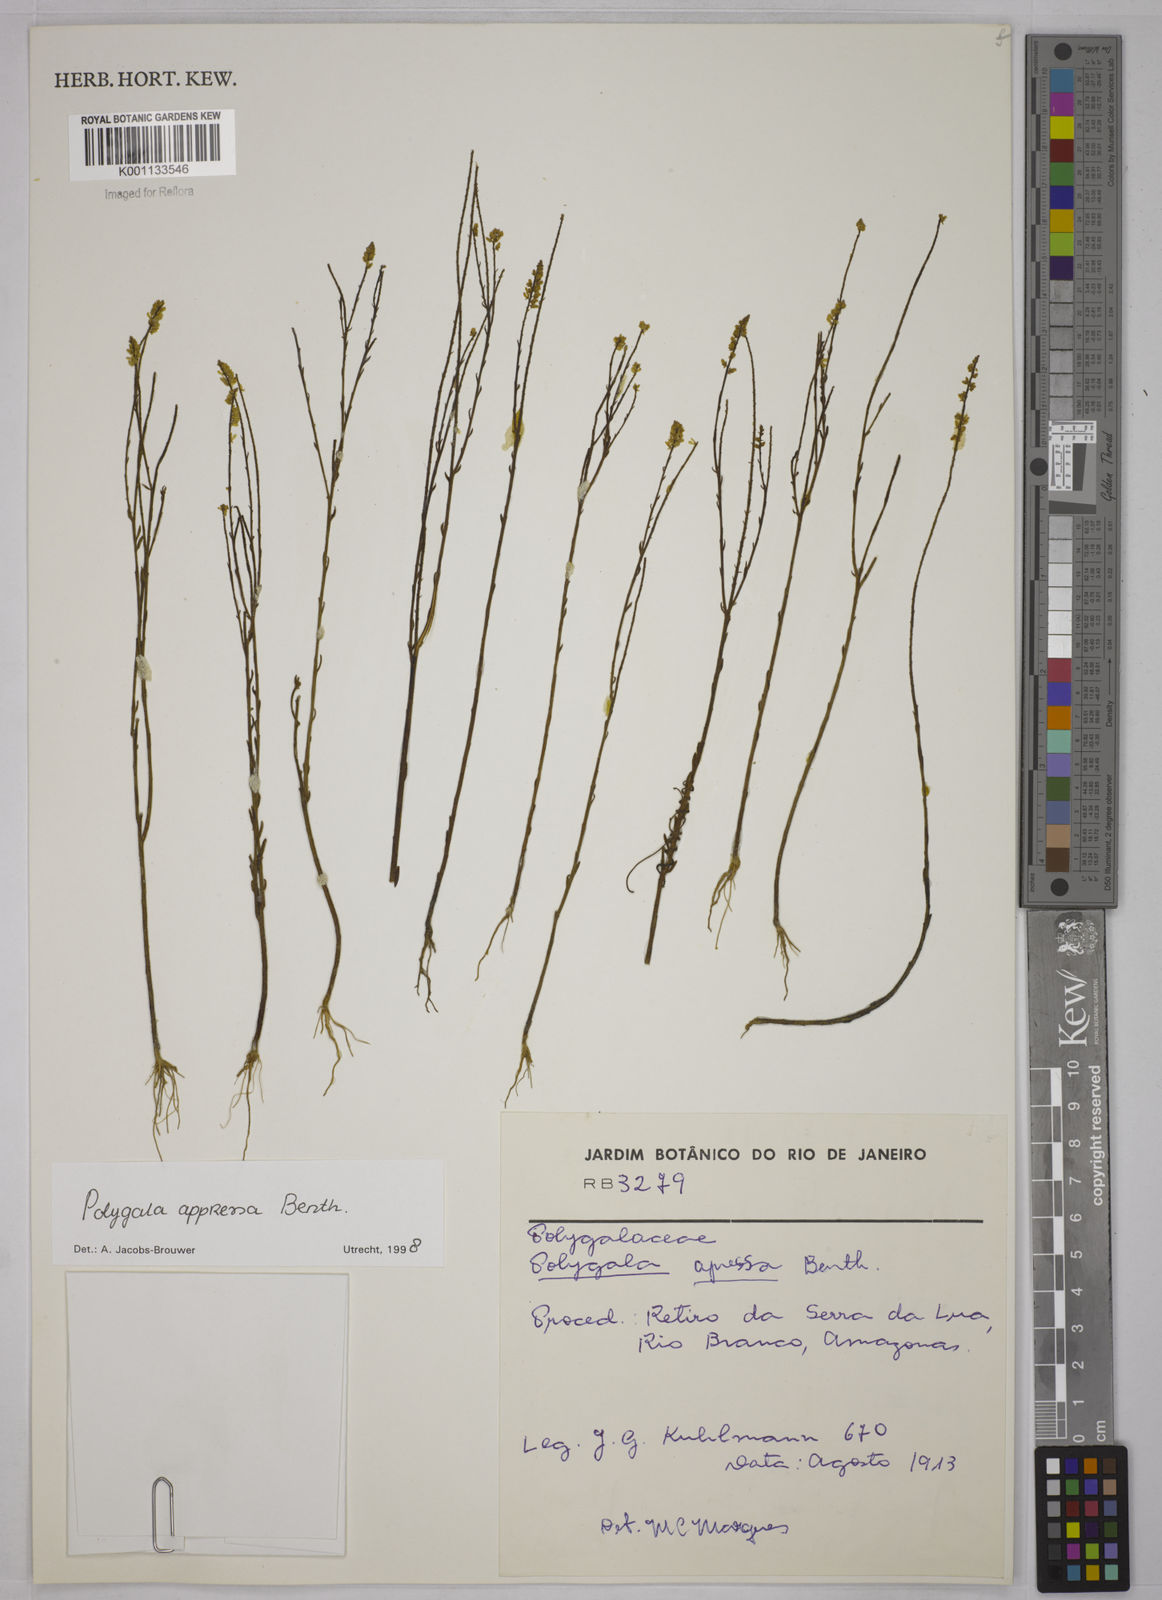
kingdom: Plantae
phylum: Tracheophyta
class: Magnoliopsida
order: Fabales
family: Polygalaceae
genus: Polygala
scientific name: Polygala appressa
